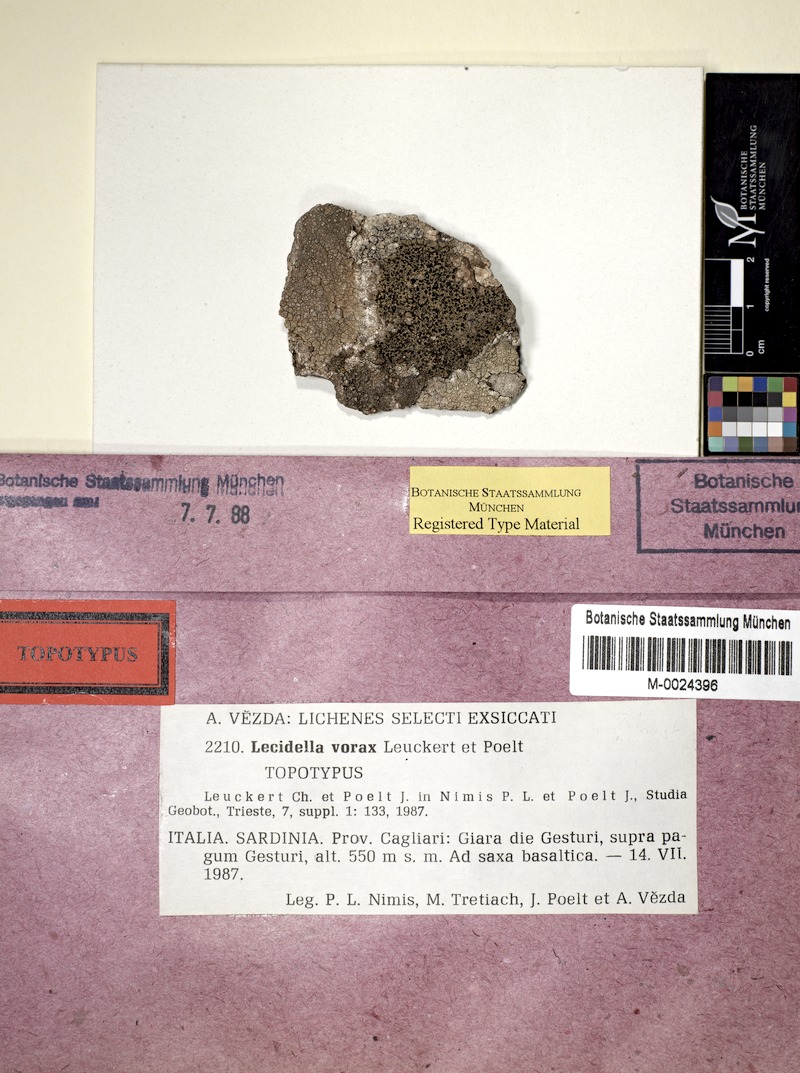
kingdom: Fungi
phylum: Ascomycota
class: Lecanoromycetes
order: Lecanorales
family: Lecanoraceae
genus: Lecidella
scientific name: Lecidella vorax
